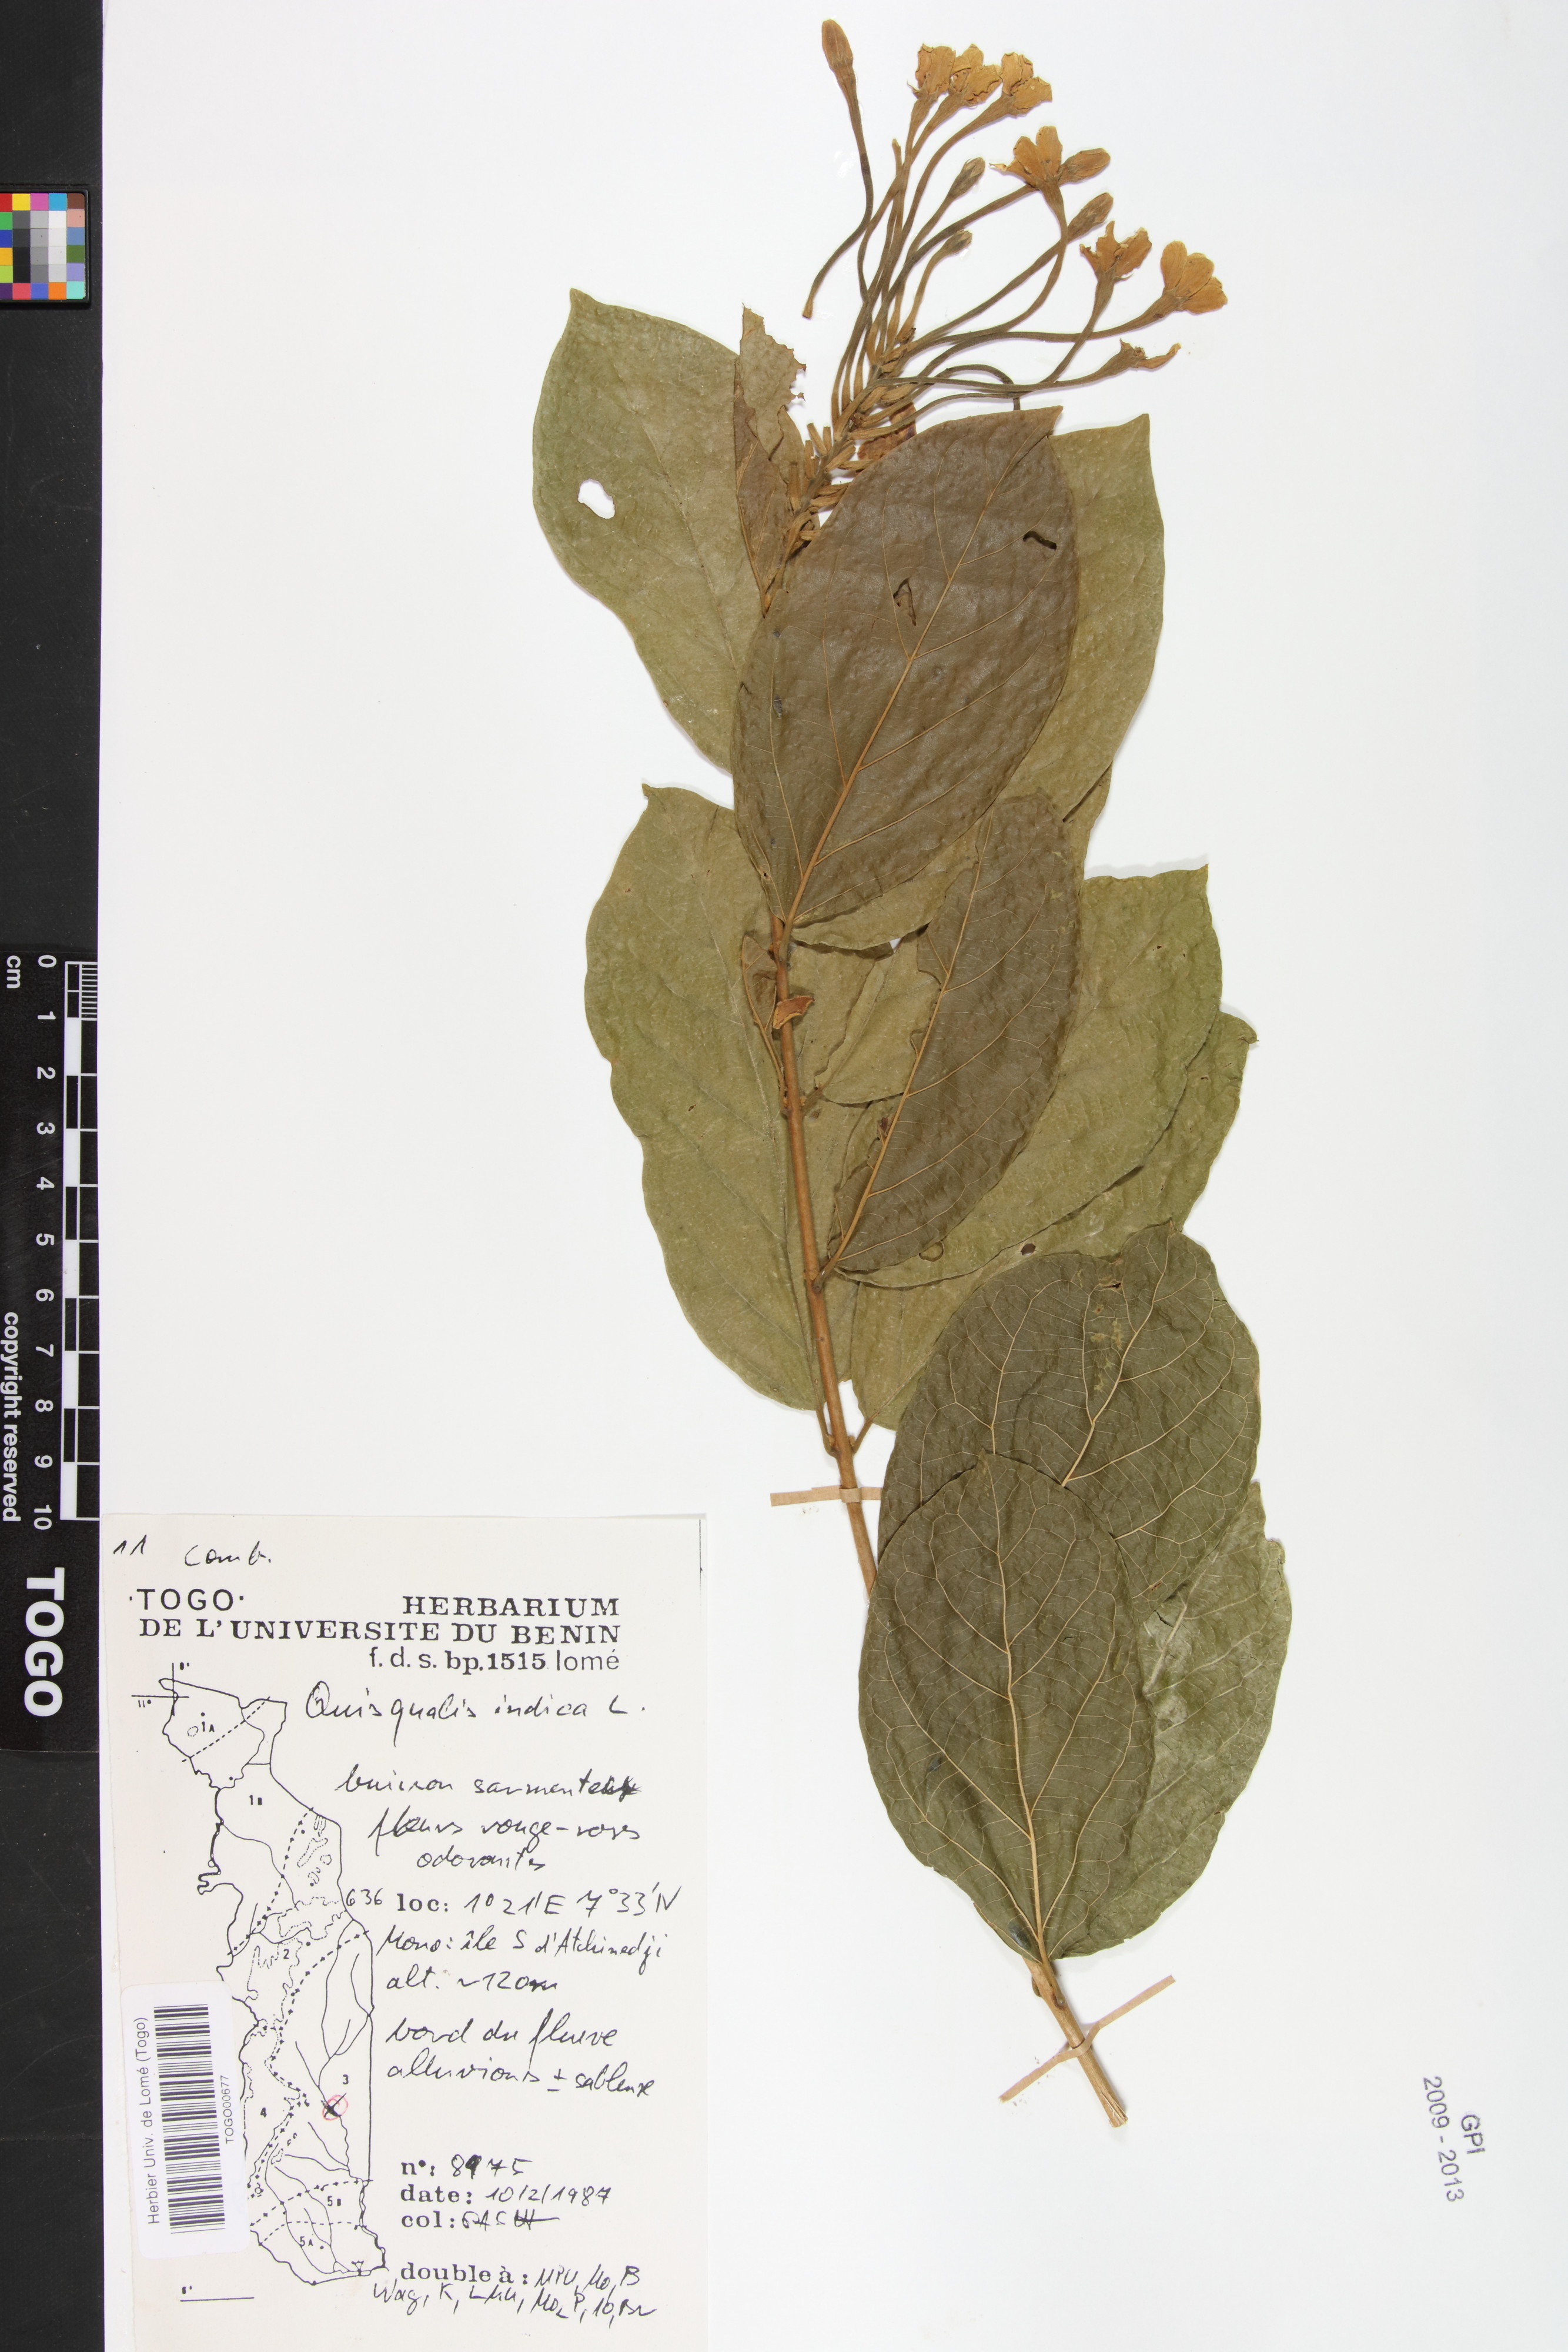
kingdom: Plantae
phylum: Tracheophyta
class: Magnoliopsida
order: Myrtales
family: Combretaceae
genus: Combretum
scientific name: Combretum indicum
